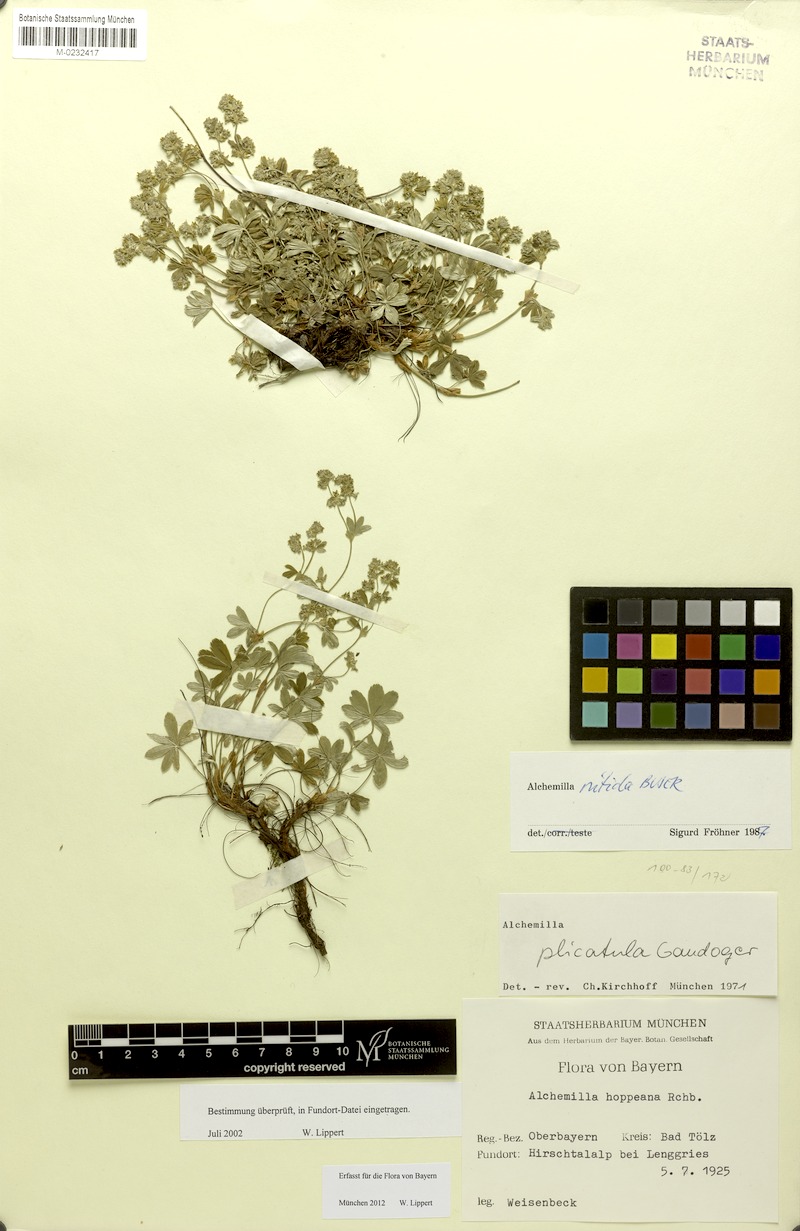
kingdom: Plantae
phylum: Tracheophyta
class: Magnoliopsida
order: Rosales
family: Rosaceae
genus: Alchemilla
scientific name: Alchemilla nitida
